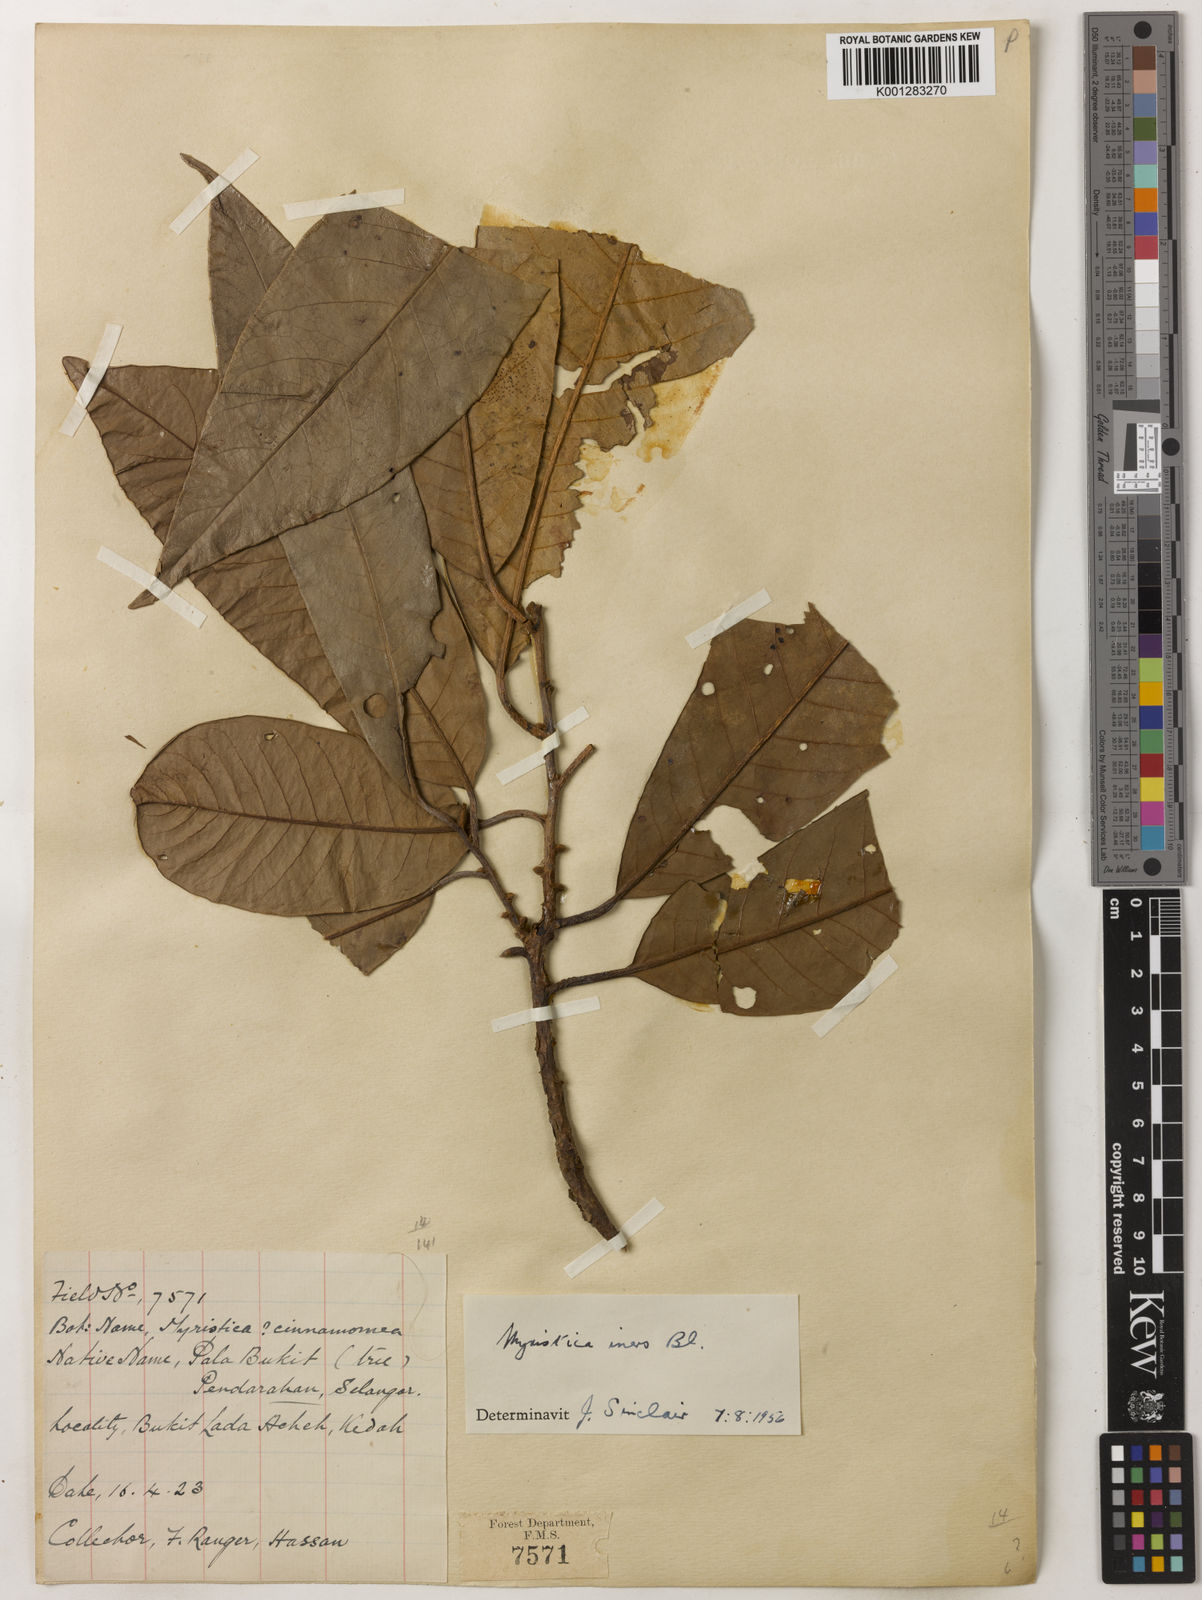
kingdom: Plantae
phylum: Tracheophyta
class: Magnoliopsida
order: Magnoliales
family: Myristicaceae
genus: Myristica
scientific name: Myristica iners
